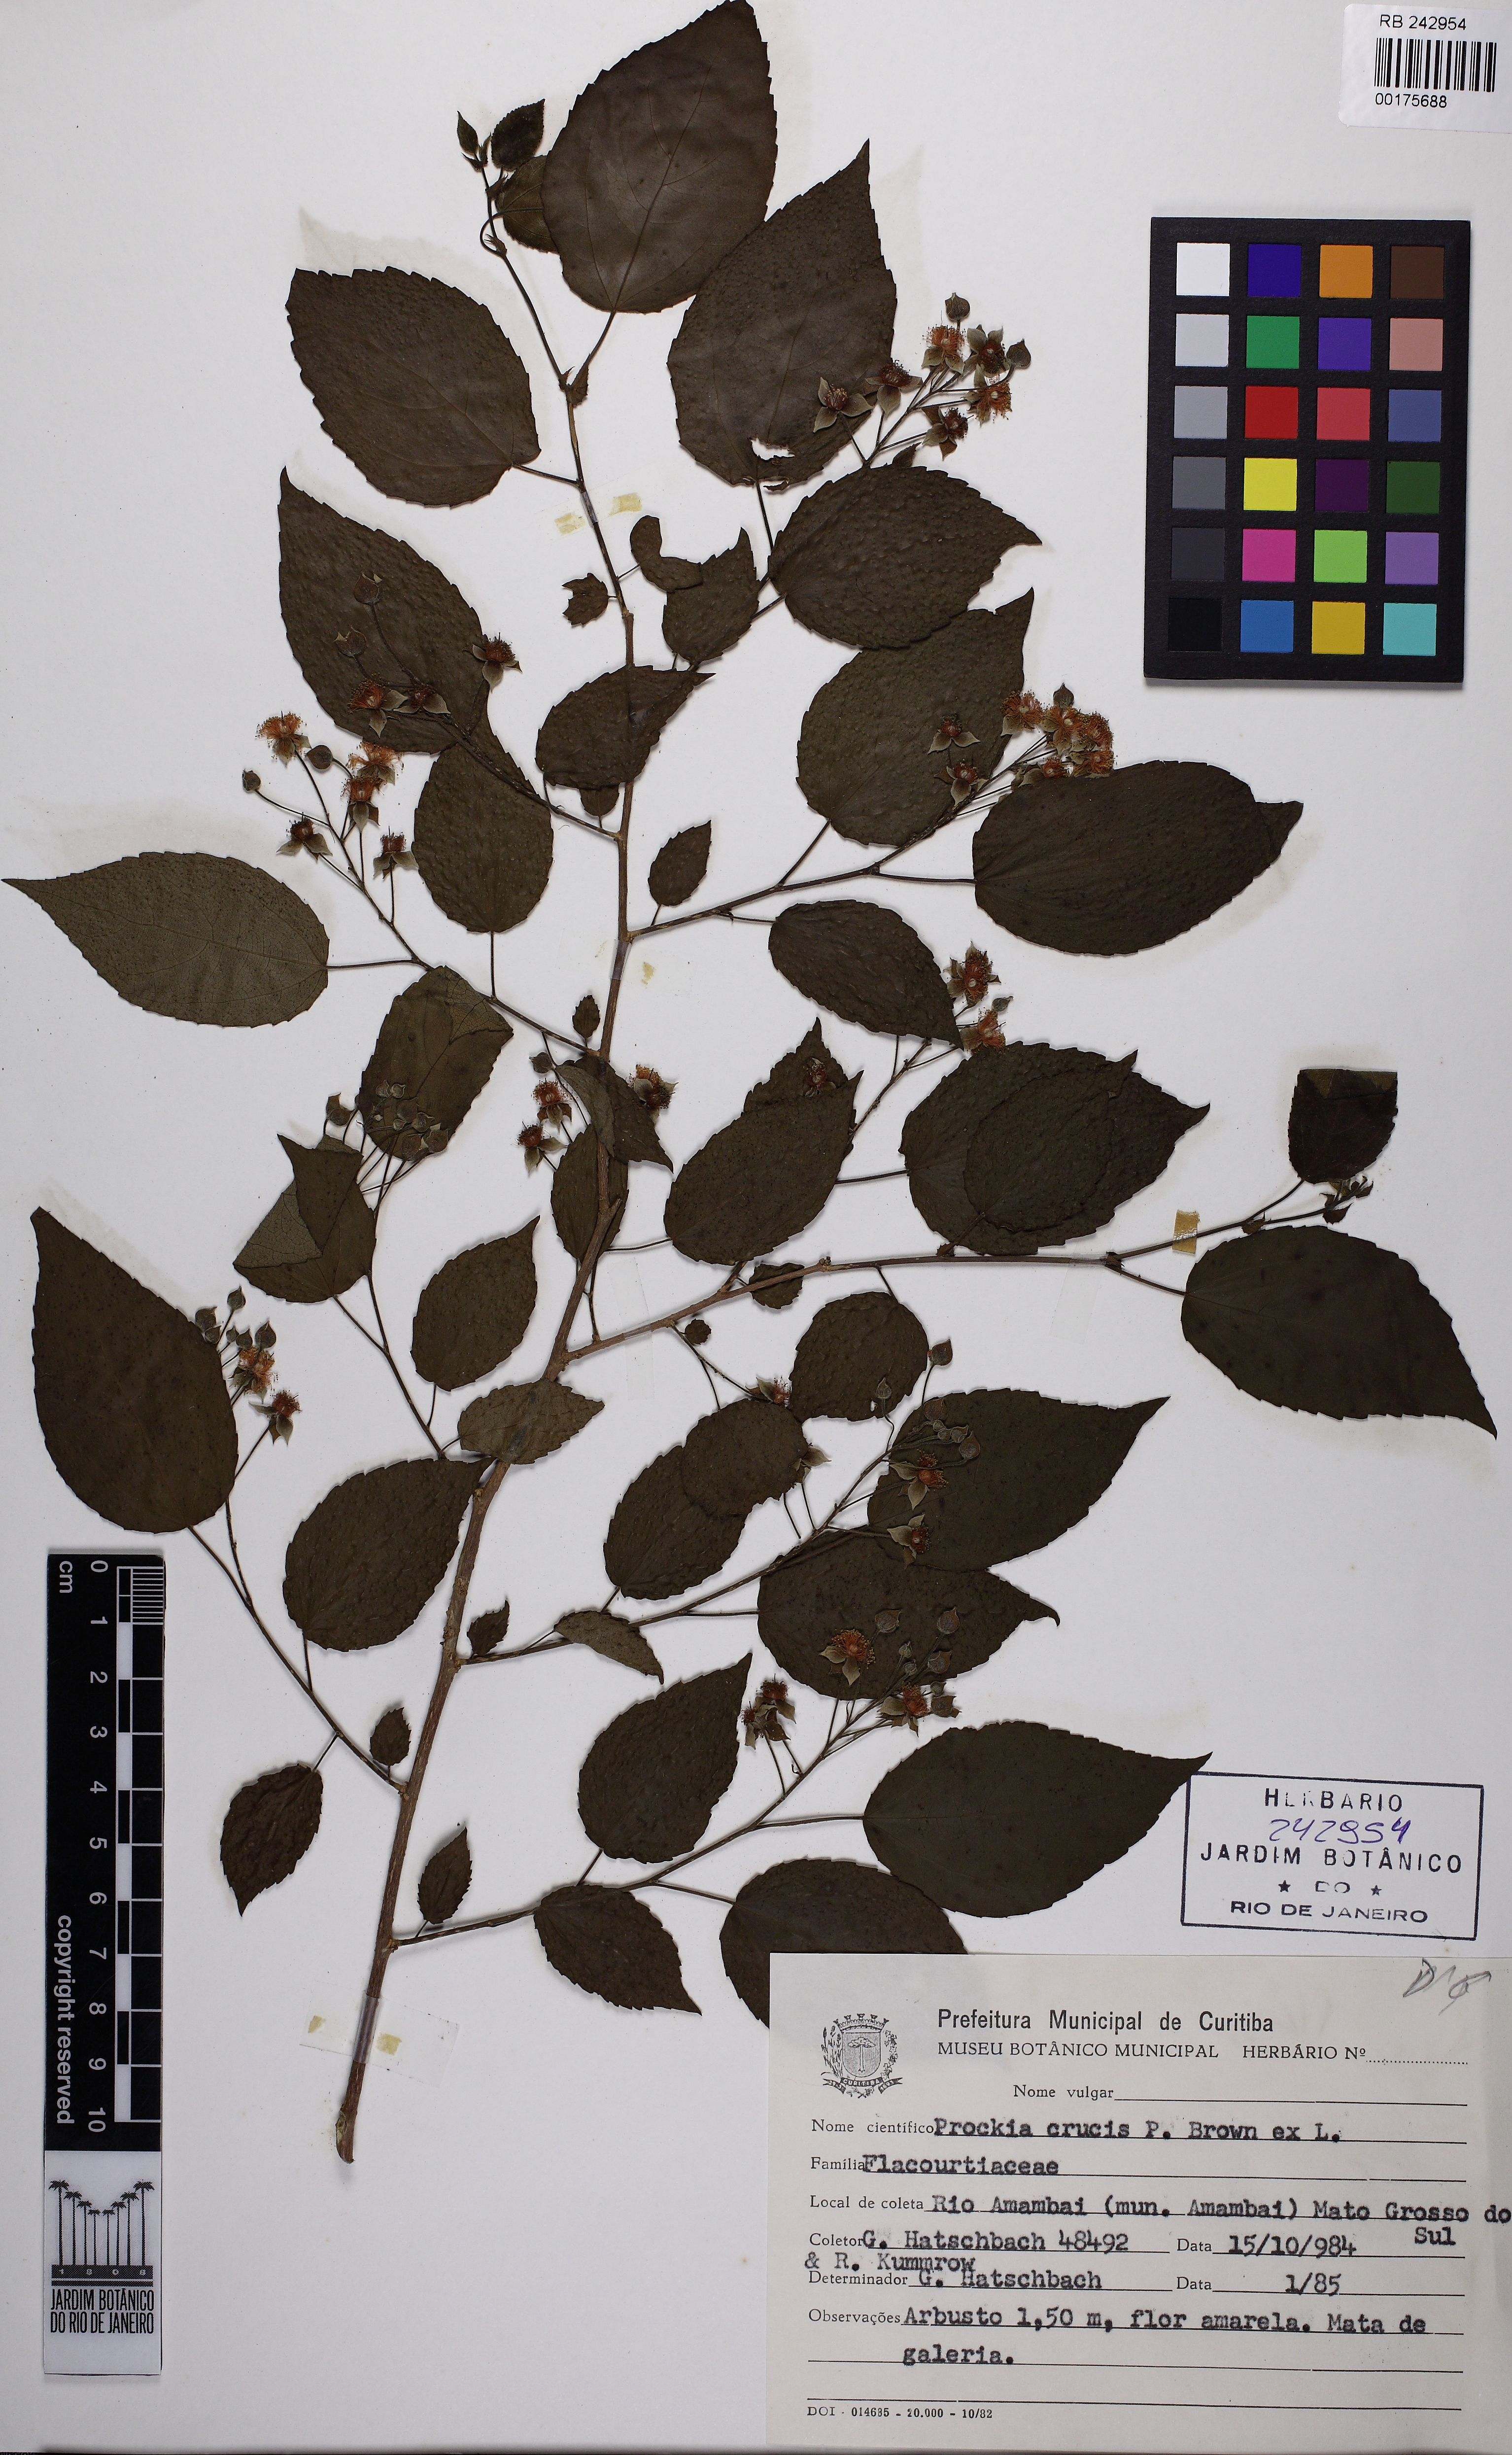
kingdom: Plantae
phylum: Tracheophyta
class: Magnoliopsida
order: Malpighiales
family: Salicaceae
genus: Prockia
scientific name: Prockia crucis
